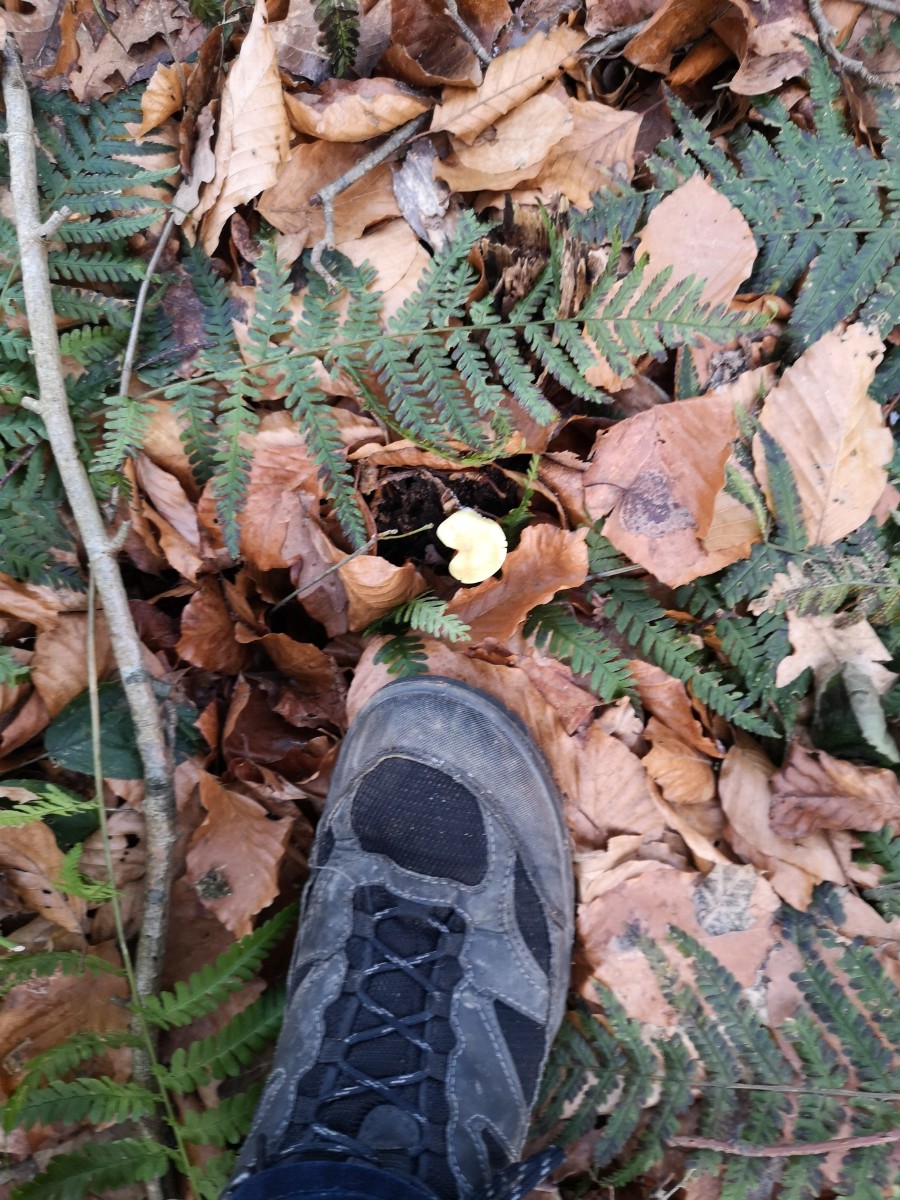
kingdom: Fungi
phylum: Basidiomycota
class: Agaricomycetes
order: Agaricales
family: Strophariaceae
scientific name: Strophariaceae
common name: bredbladfamilien
